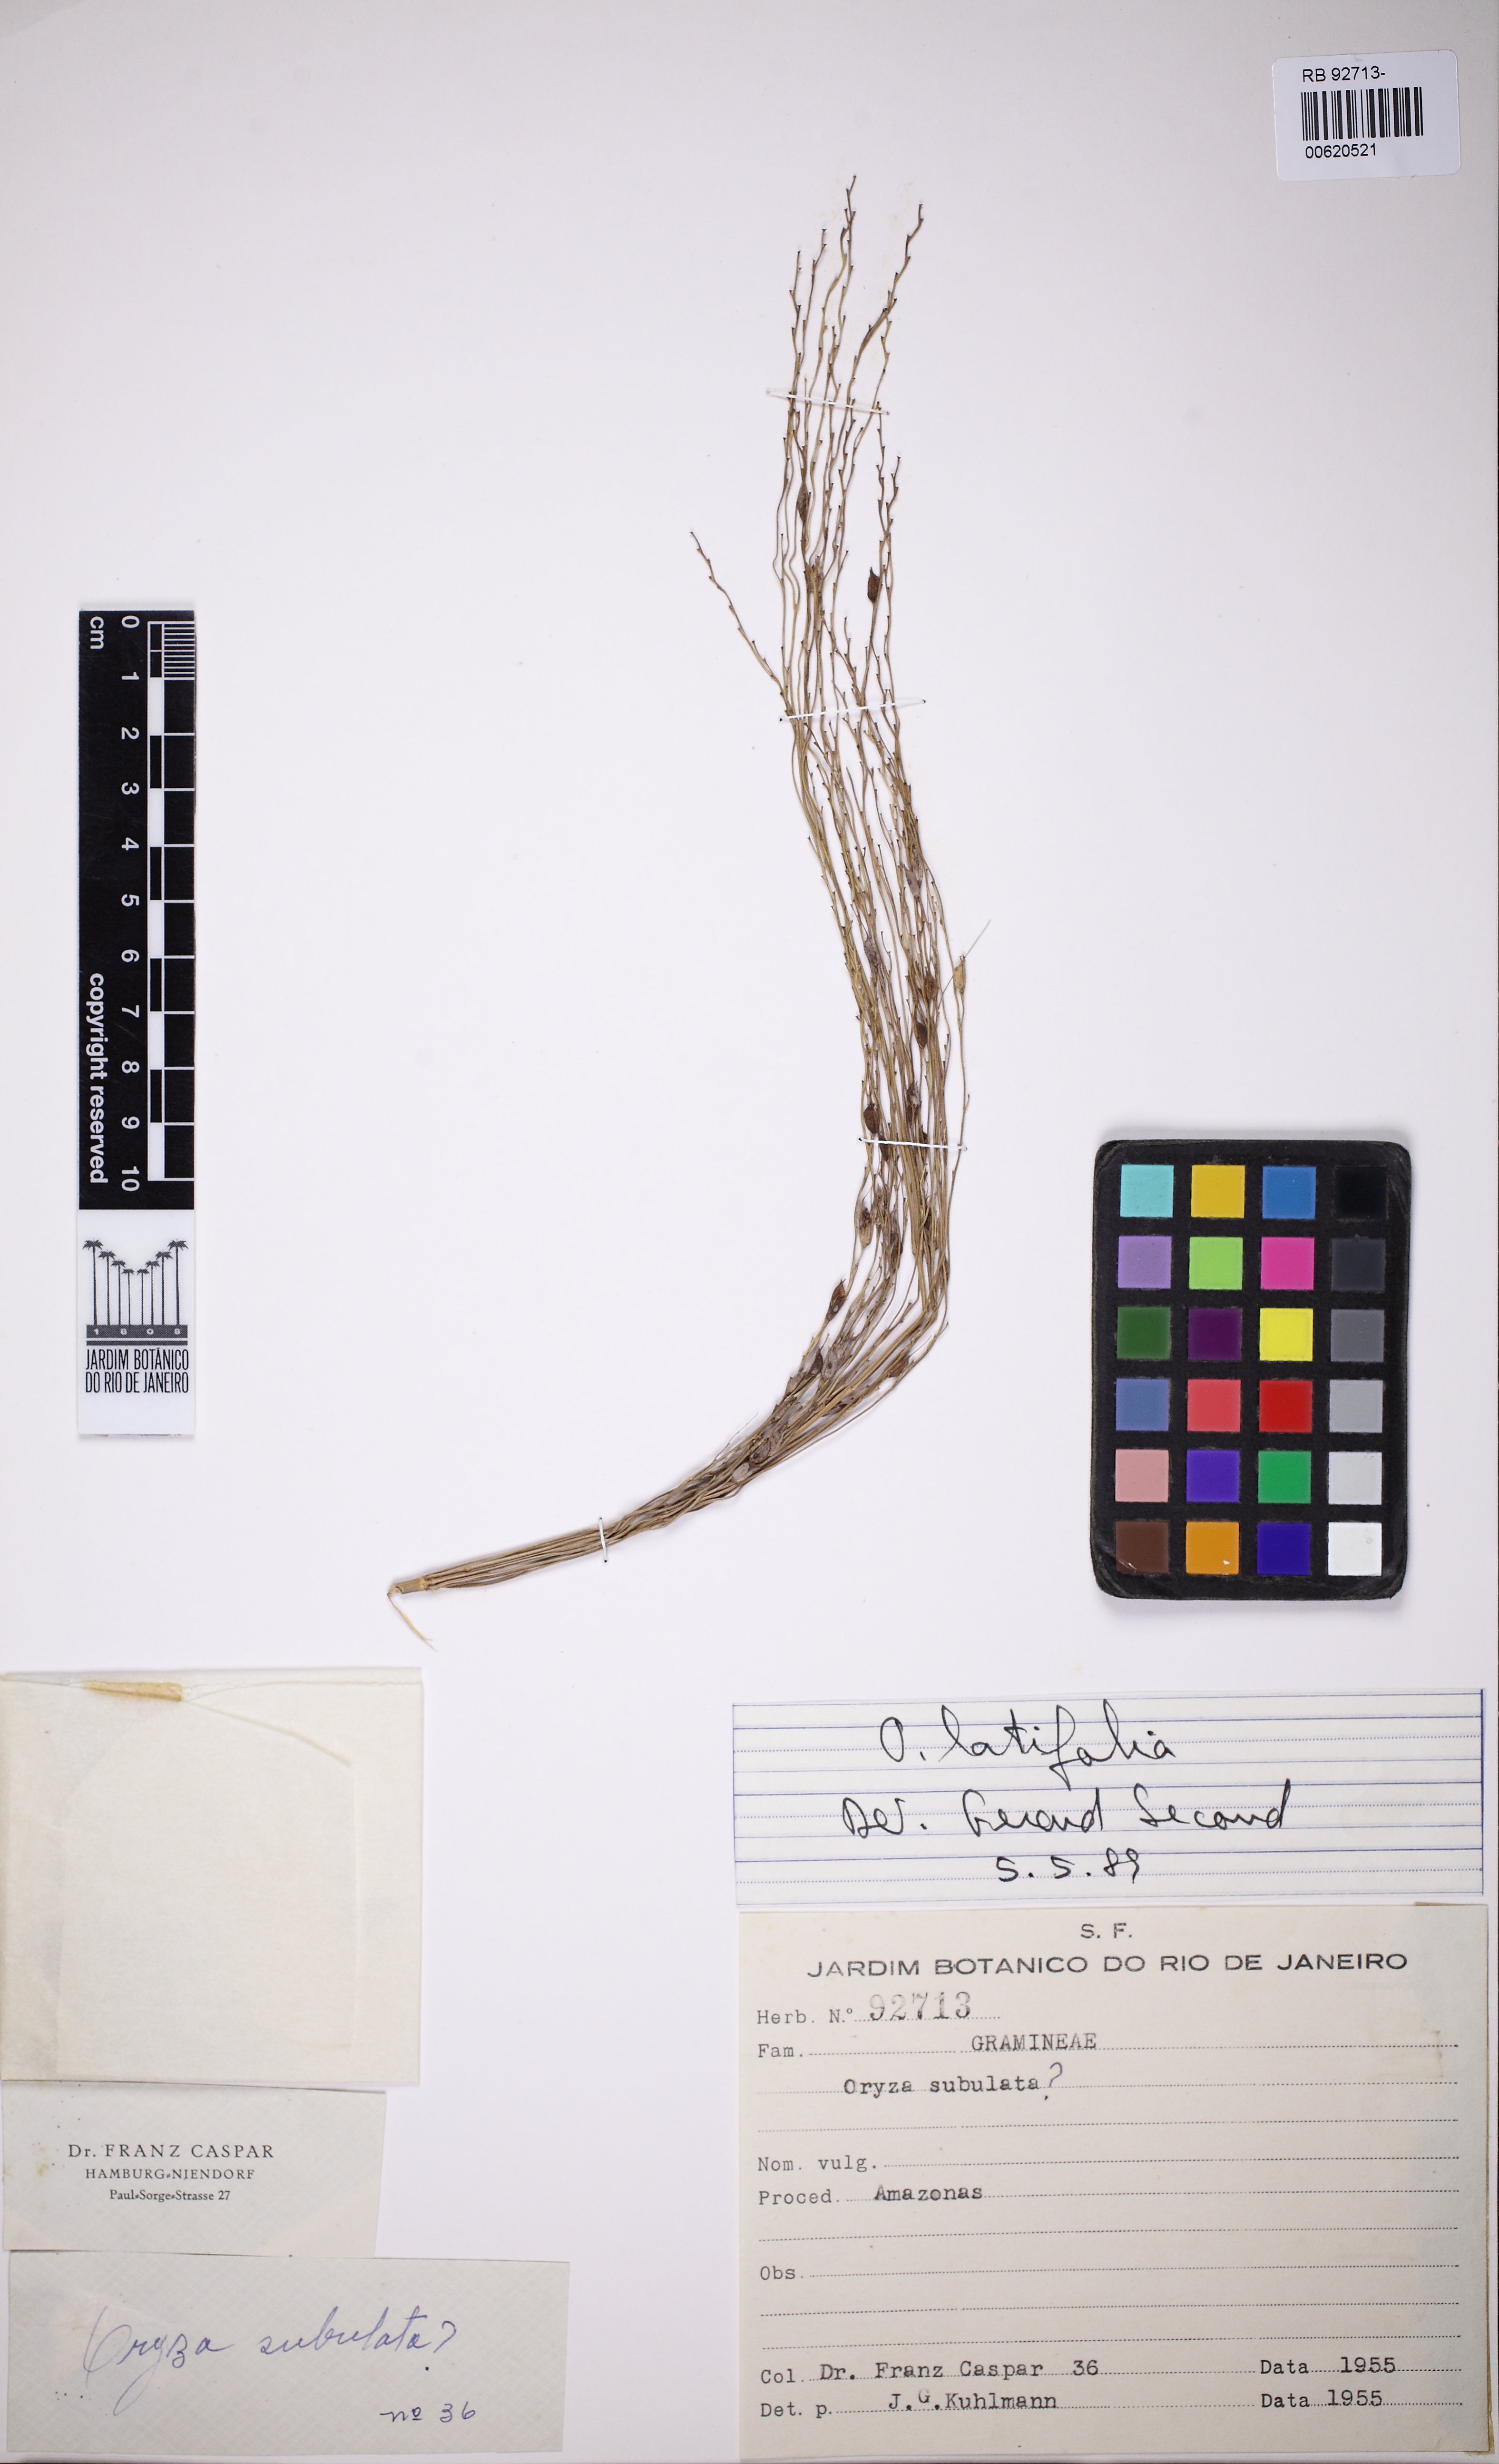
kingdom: Plantae
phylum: Tracheophyta
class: Liliopsida
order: Poales
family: Poaceae
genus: Oryza
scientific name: Oryza latifolia
